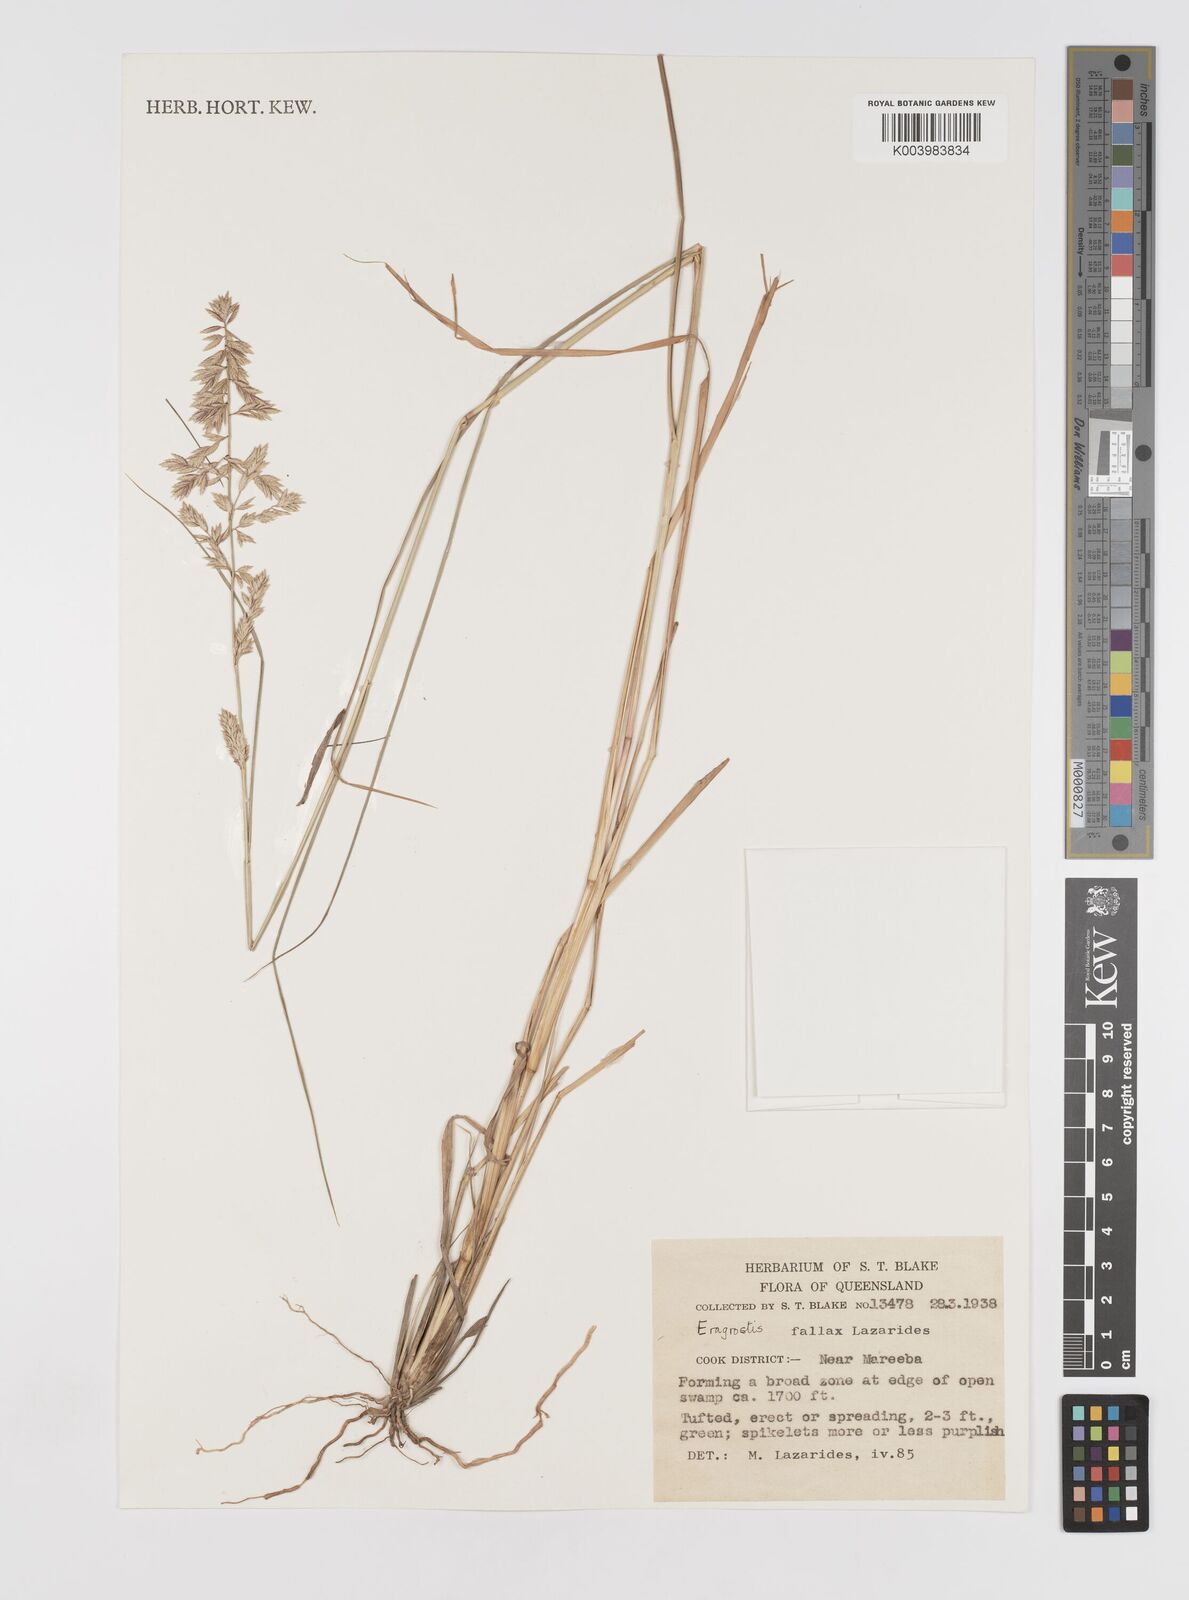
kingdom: Plantae
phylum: Tracheophyta
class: Liliopsida
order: Poales
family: Poaceae
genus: Eragrostis
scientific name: Eragrostis fallax
